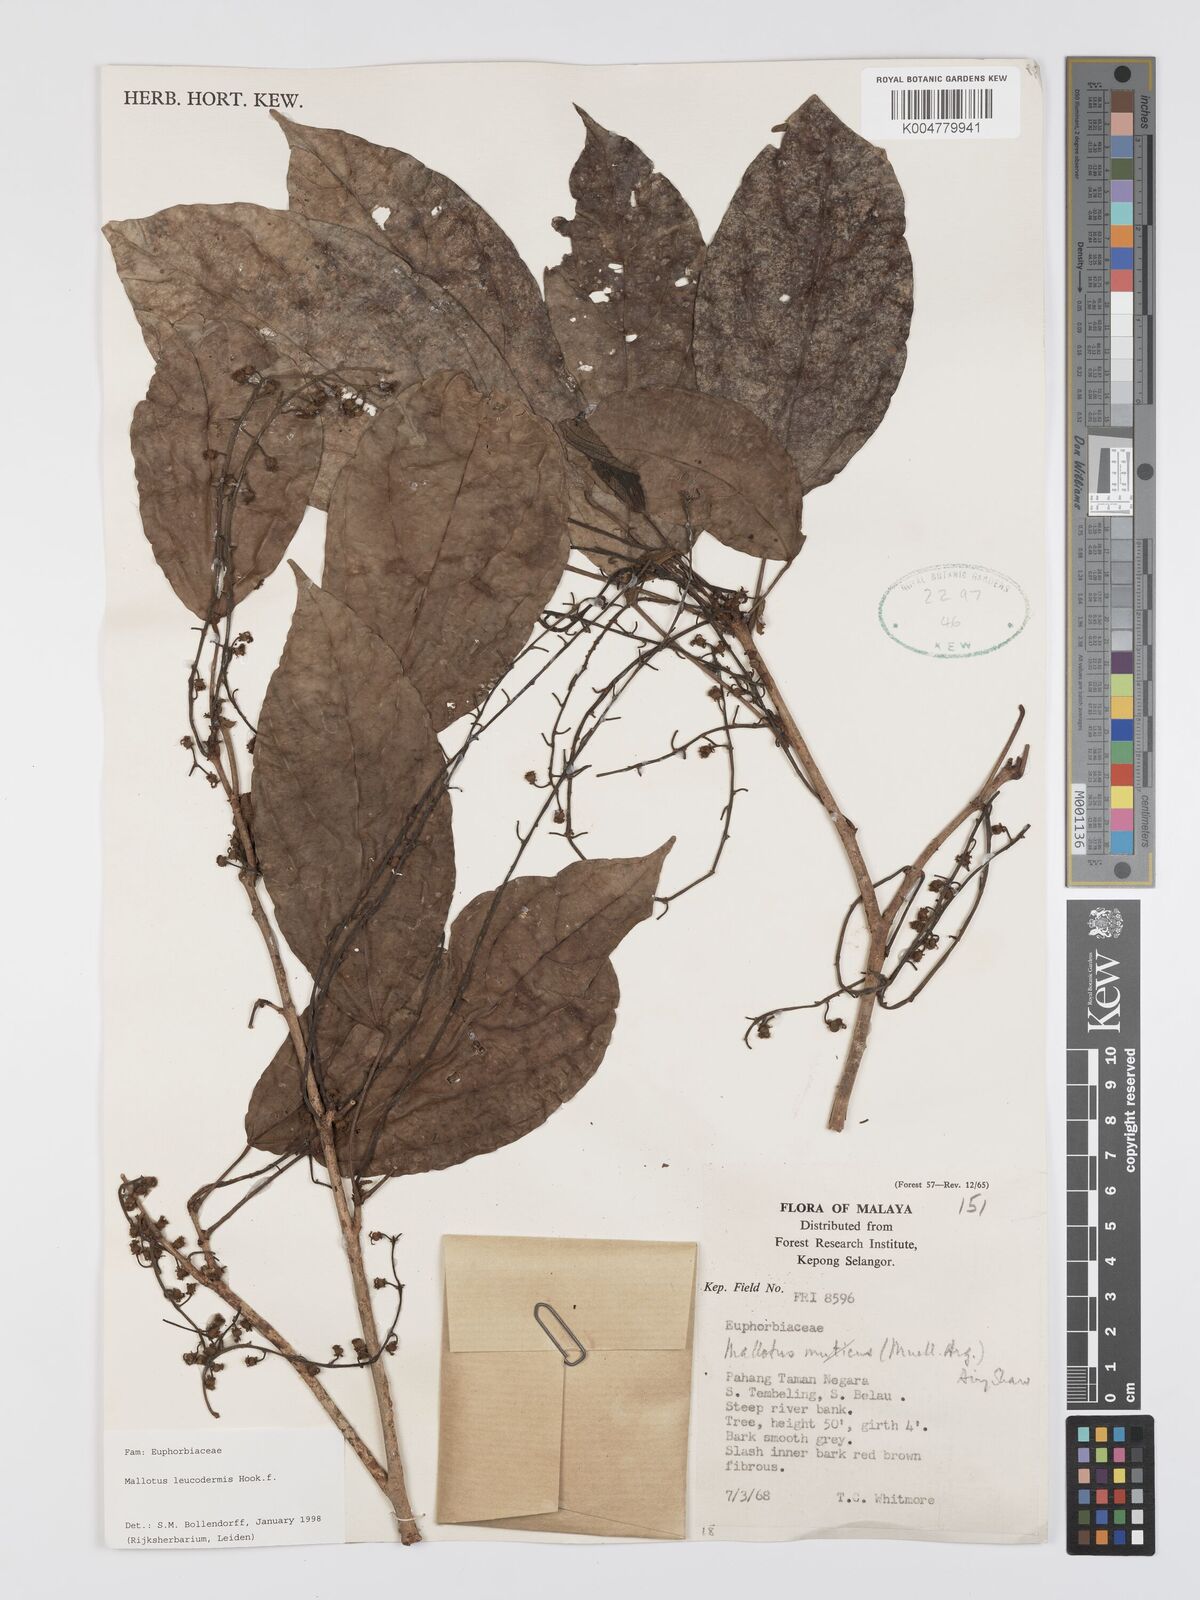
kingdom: Plantae
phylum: Tracheophyta
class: Magnoliopsida
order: Malpighiales
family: Euphorbiaceae
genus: Mallotus
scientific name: Mallotus leucodermis
